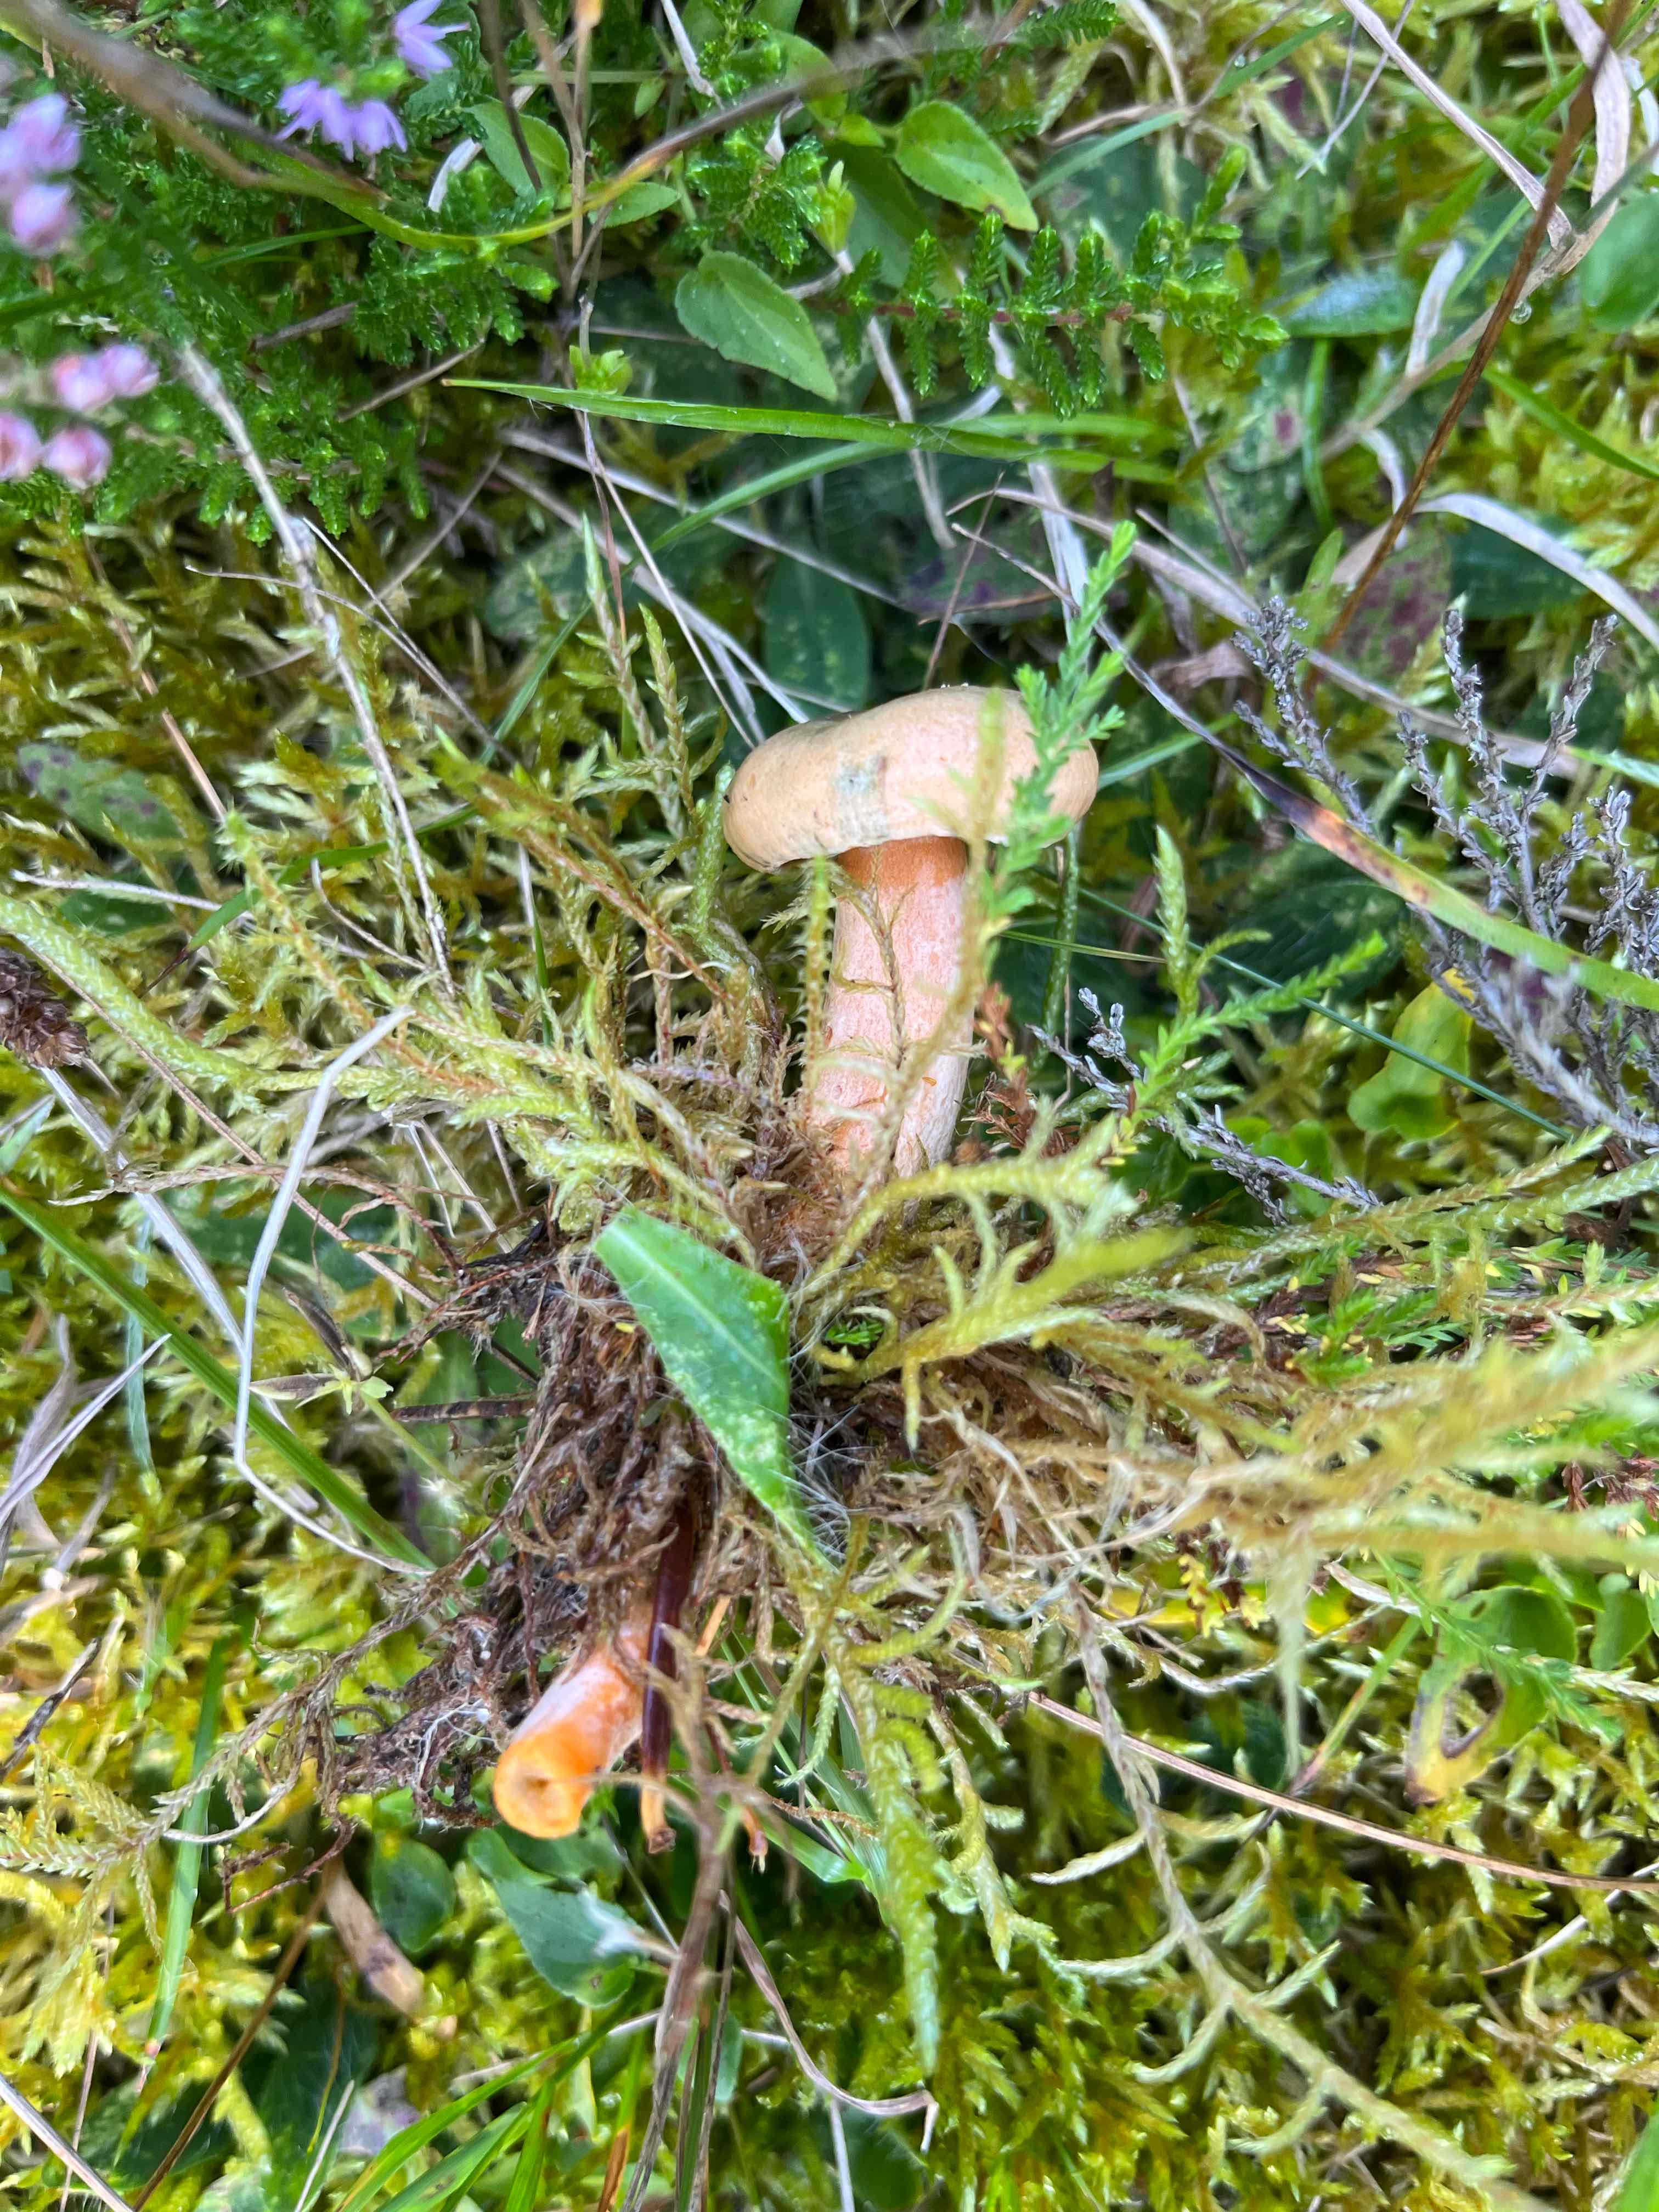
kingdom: Fungi
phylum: Basidiomycota
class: Agaricomycetes
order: Russulales
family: Russulaceae
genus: Lactarius
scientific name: Lactarius deterrimus
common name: gran-mælkehat
